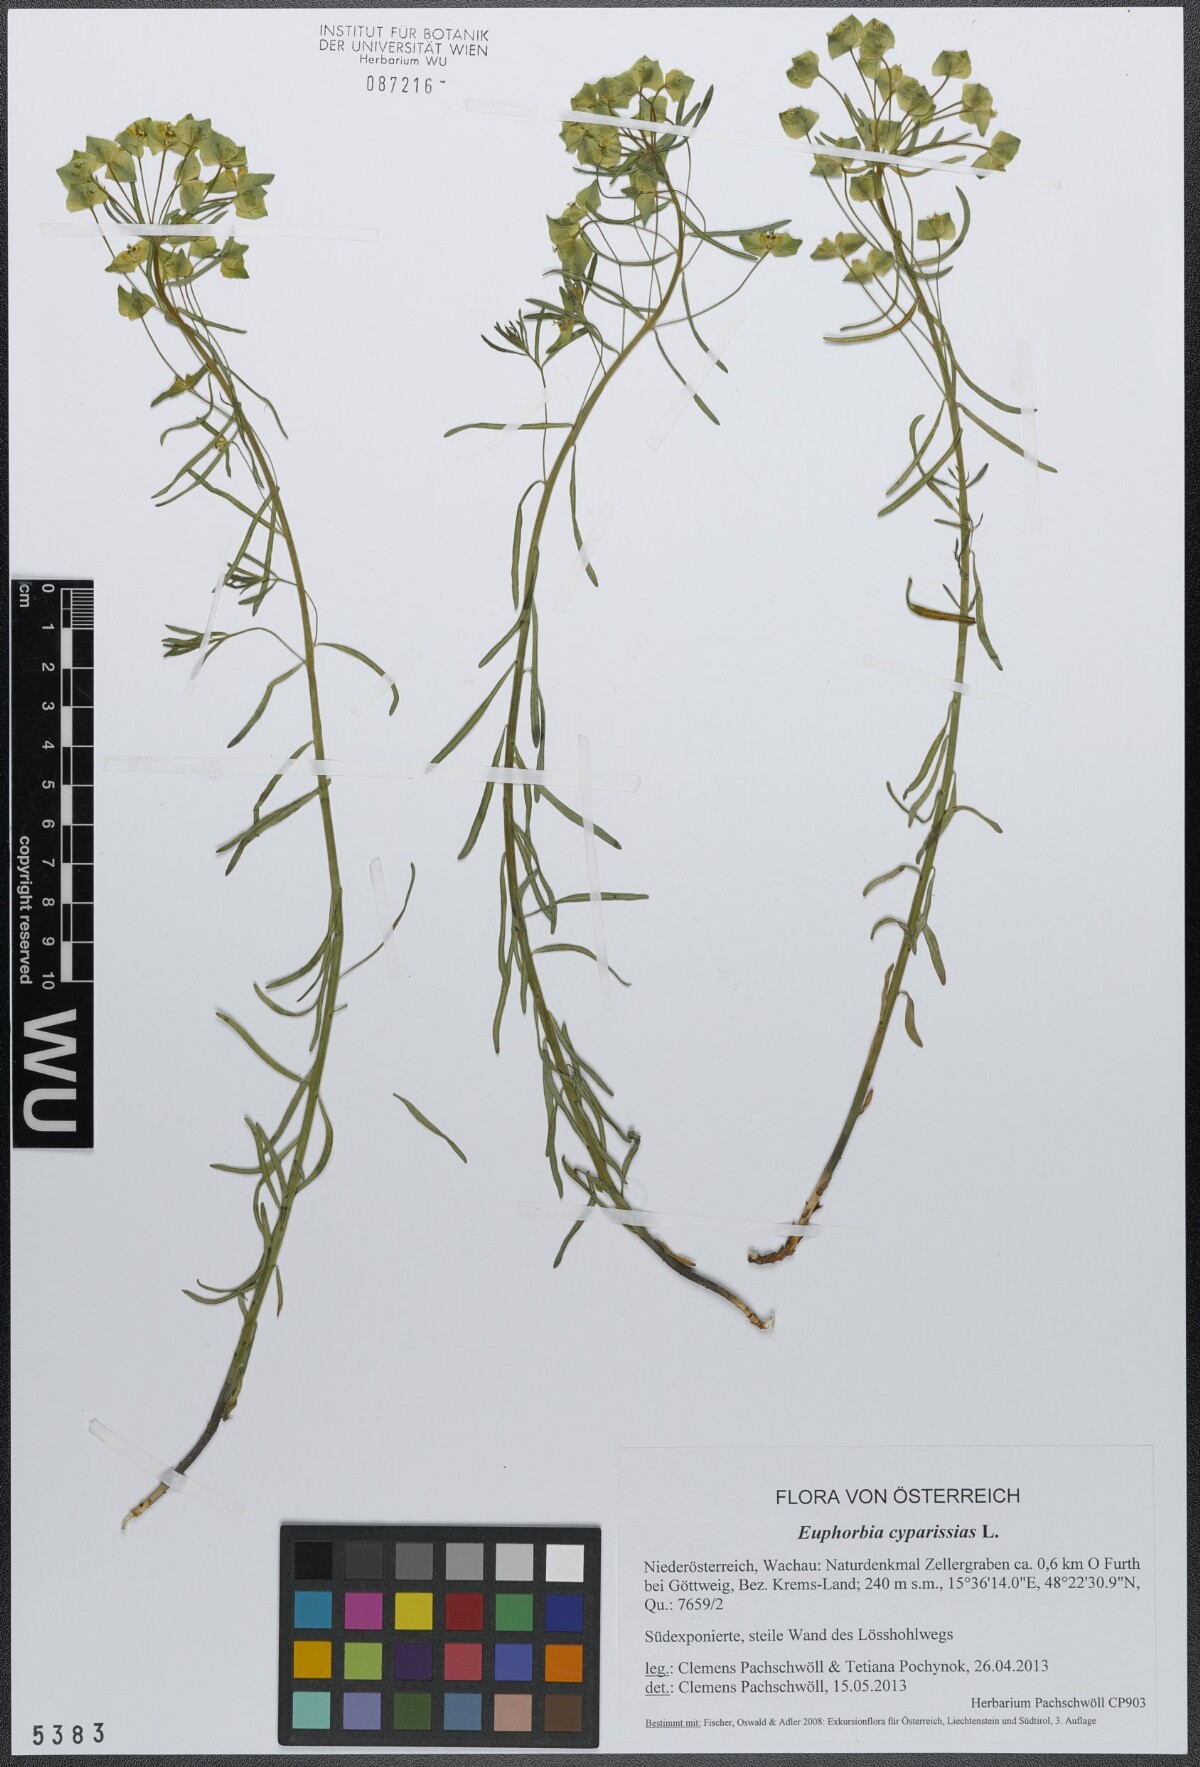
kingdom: Plantae
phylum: Tracheophyta
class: Magnoliopsida
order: Malpighiales
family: Euphorbiaceae
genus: Euphorbia
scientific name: Euphorbia cyparissias
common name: Cypress spurge
